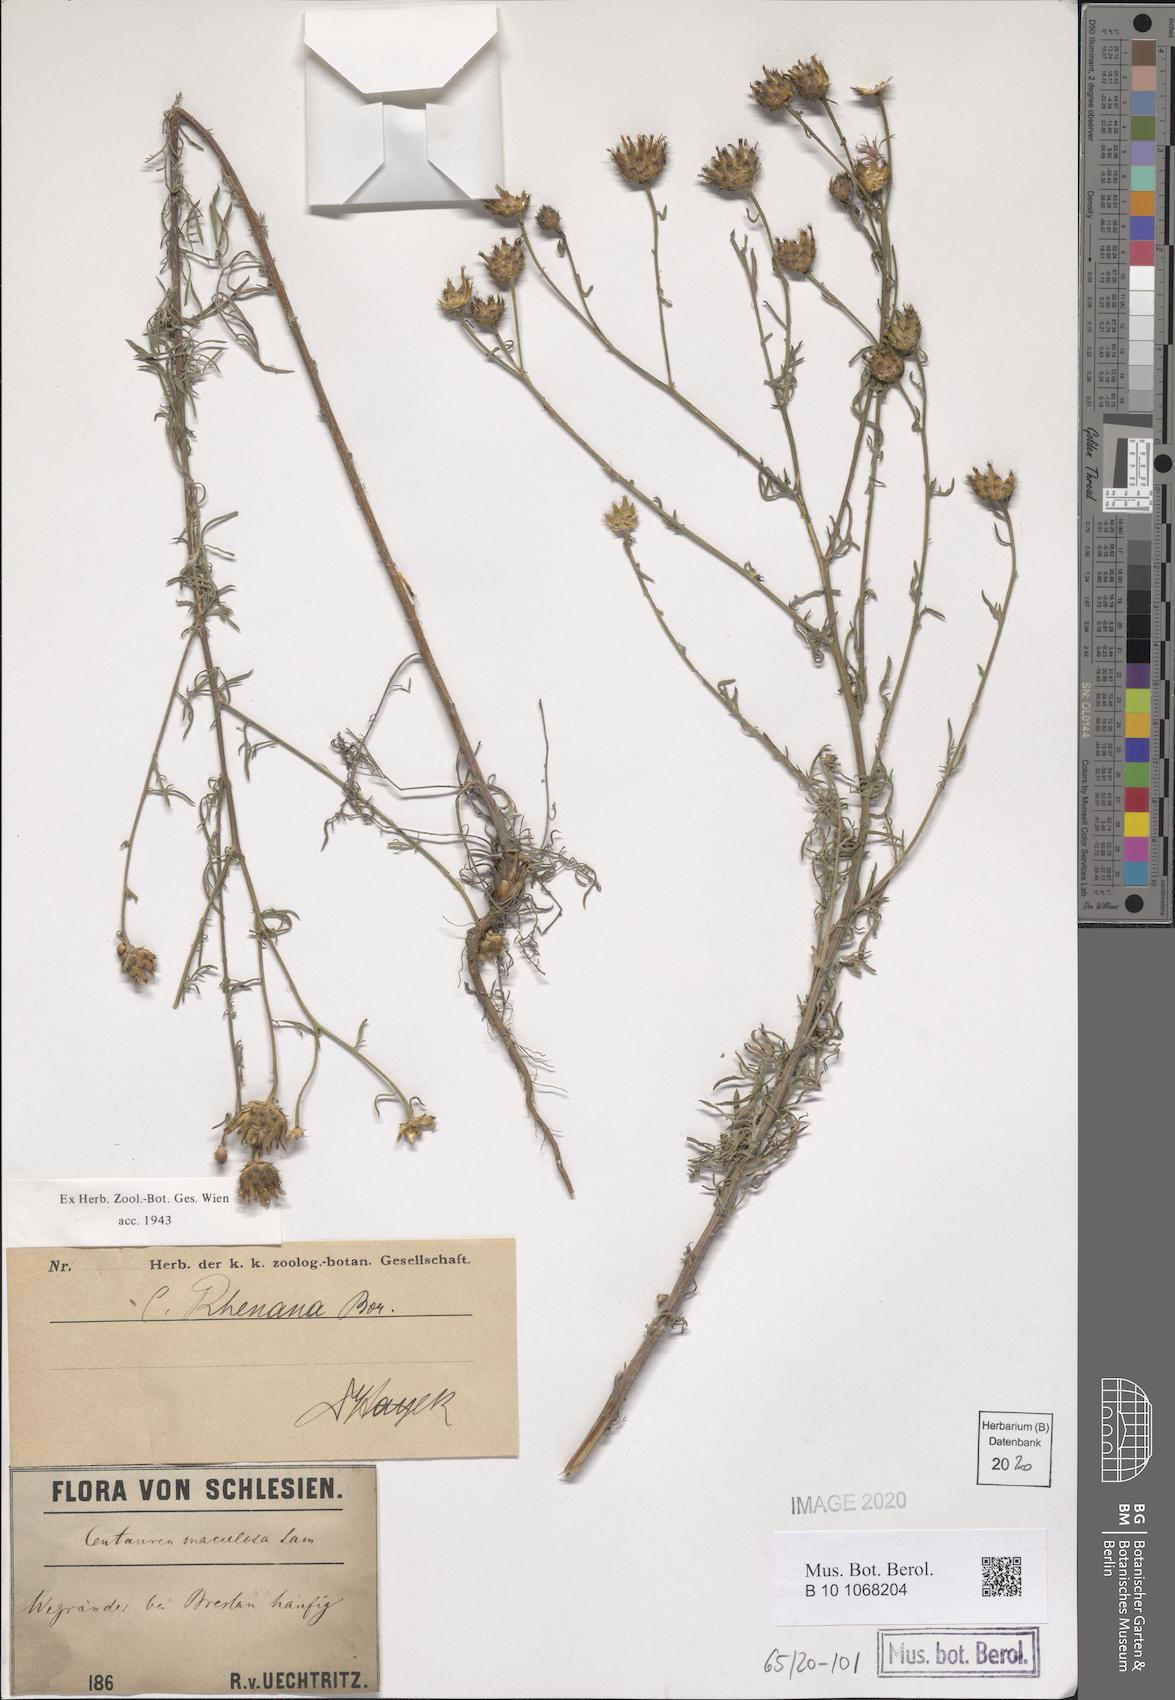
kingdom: Plantae
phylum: Tracheophyta
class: Magnoliopsida
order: Asterales
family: Asteraceae
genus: Centaurea
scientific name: Centaurea stoebe
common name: Spotted knapweed
